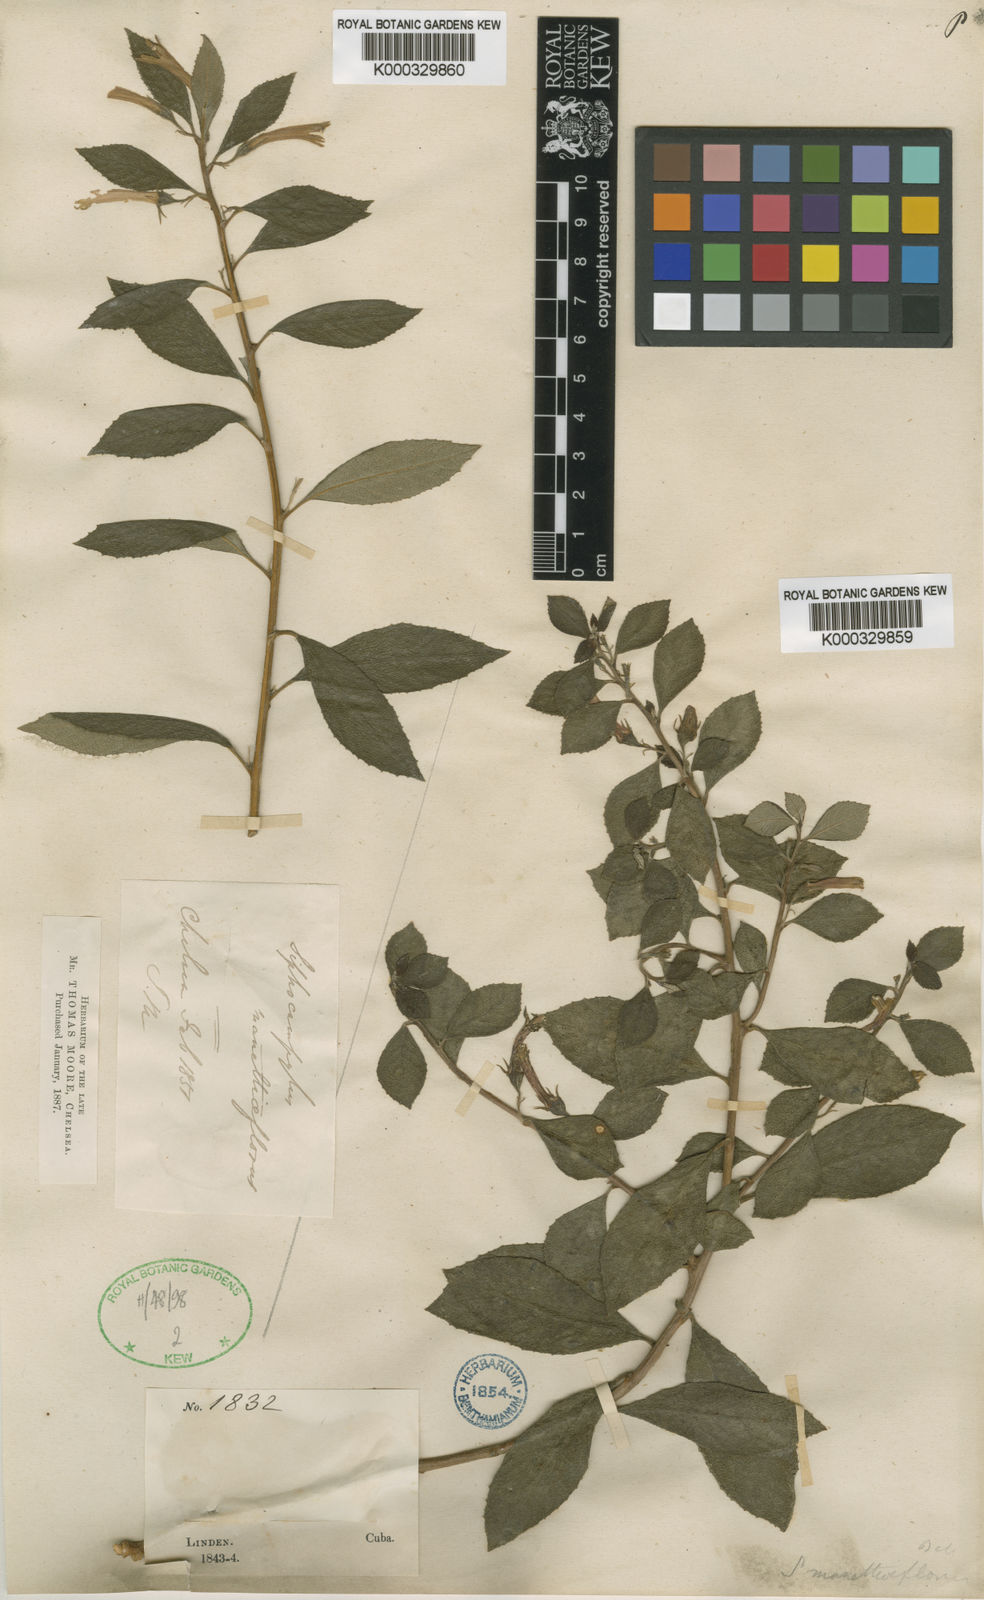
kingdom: Plantae
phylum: Tracheophyta
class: Magnoliopsida
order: Asterales
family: Campanulaceae
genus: Siphocampylus
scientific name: Siphocampylus
